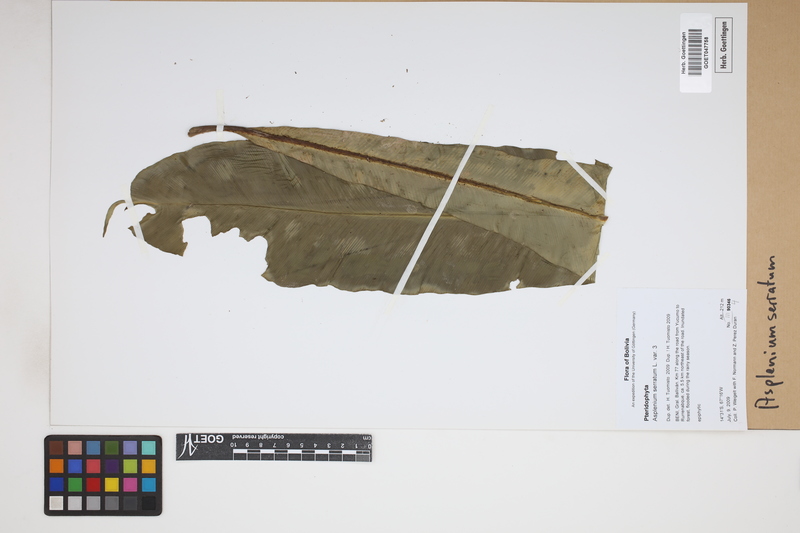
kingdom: Plantae
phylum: Tracheophyta
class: Polypodiopsida
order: Polypodiales
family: Aspleniaceae
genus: Asplenium
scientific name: Asplenium serratum
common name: Wild birdnest fern
